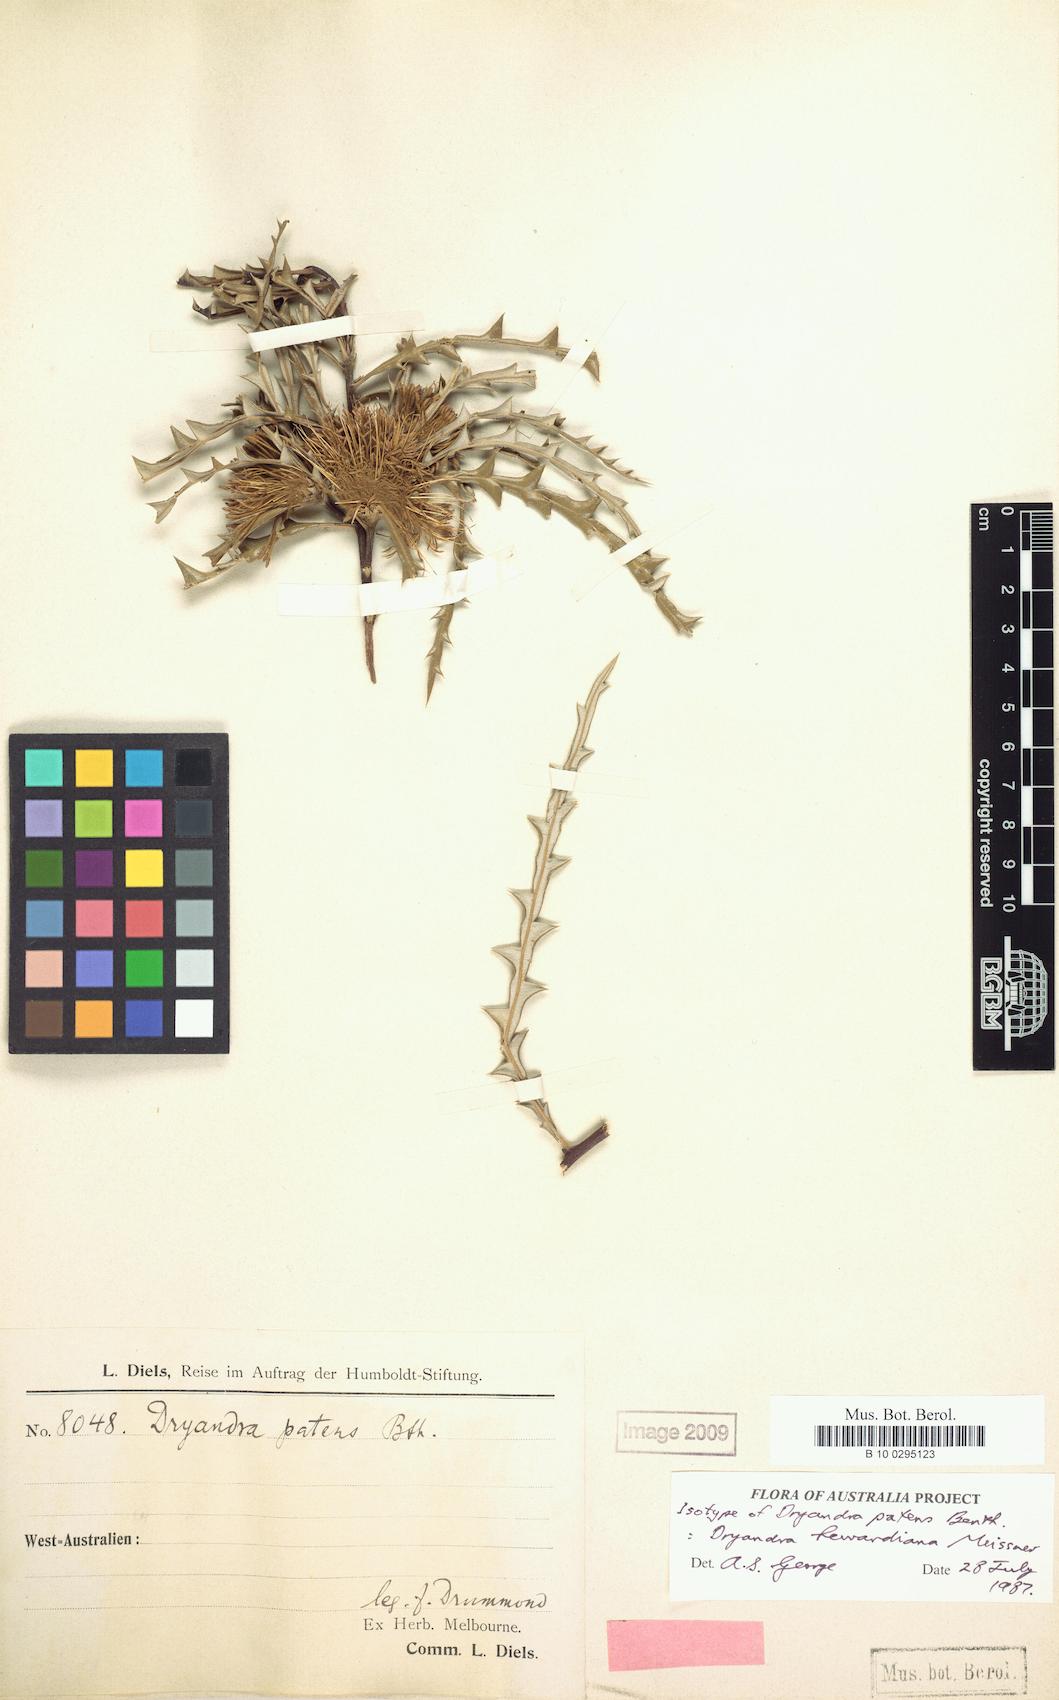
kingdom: Plantae
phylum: Tracheophyta
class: Magnoliopsida
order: Proteales
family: Proteaceae
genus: Banksia
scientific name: Banksia hewardiana
